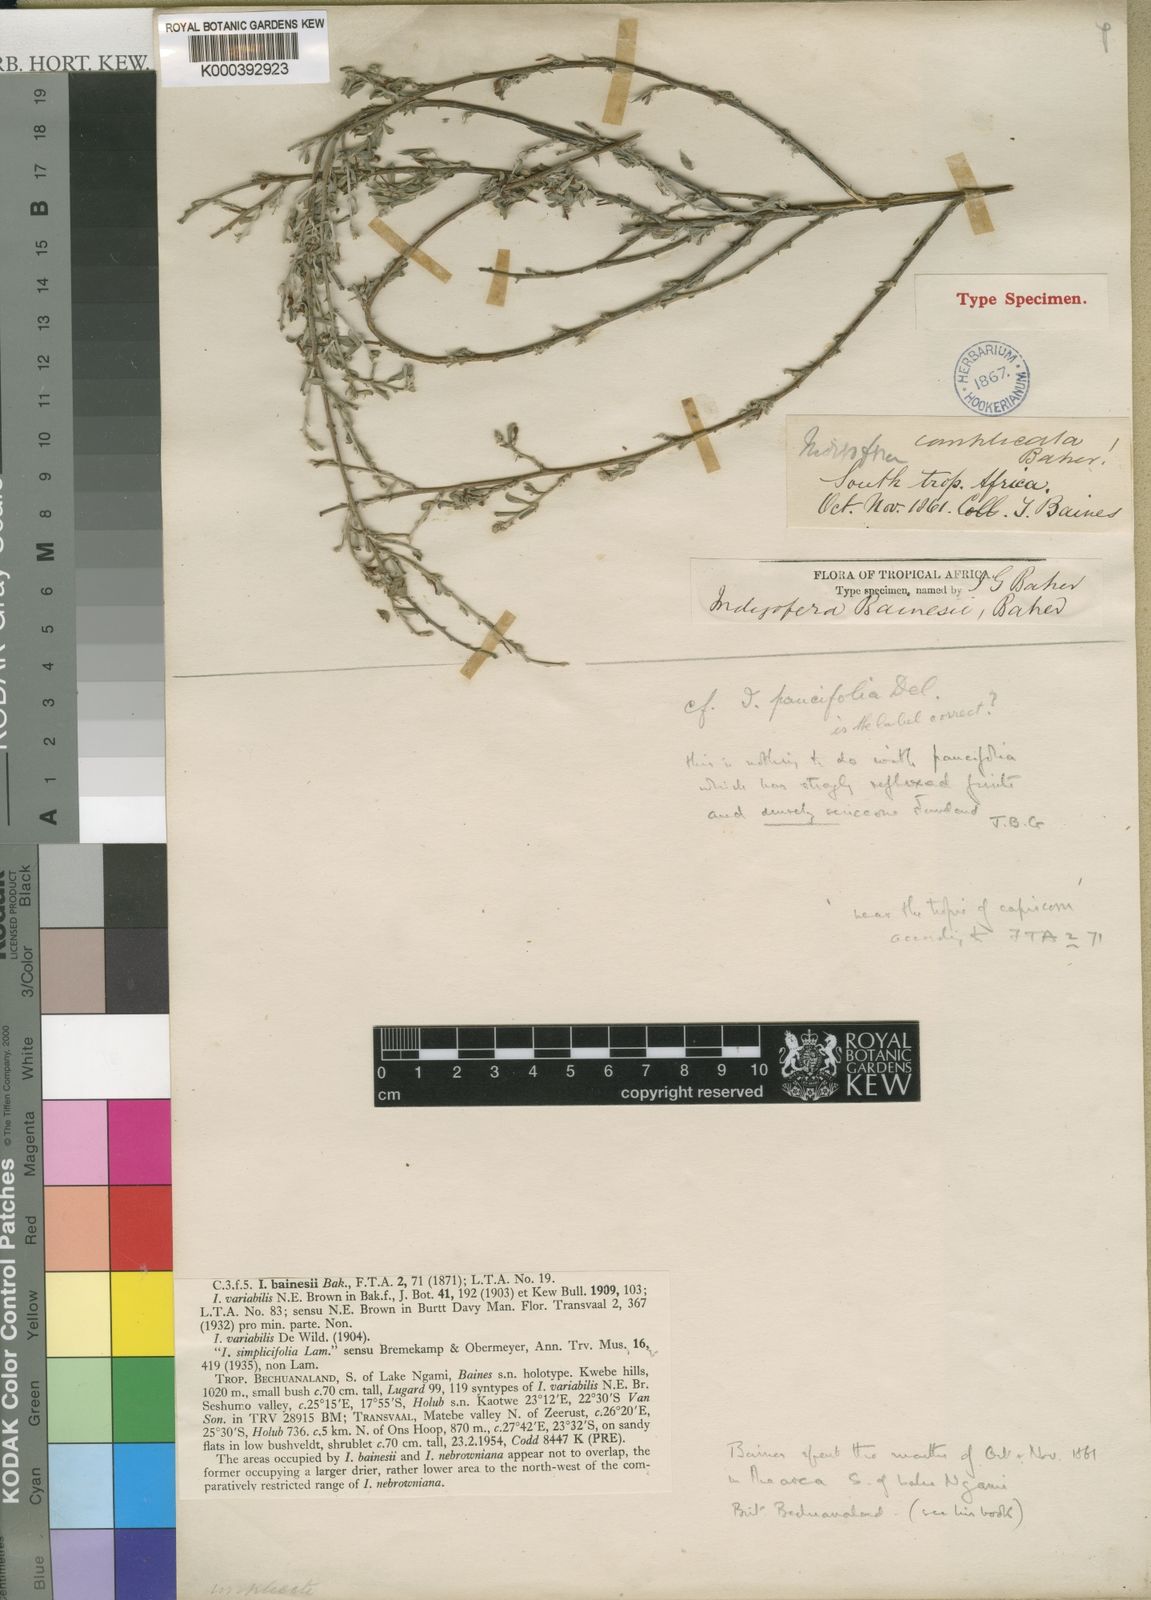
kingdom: Plantae
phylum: Tracheophyta
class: Magnoliopsida
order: Fabales
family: Fabaceae
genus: Indigofera
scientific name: Indigofera bainesii
